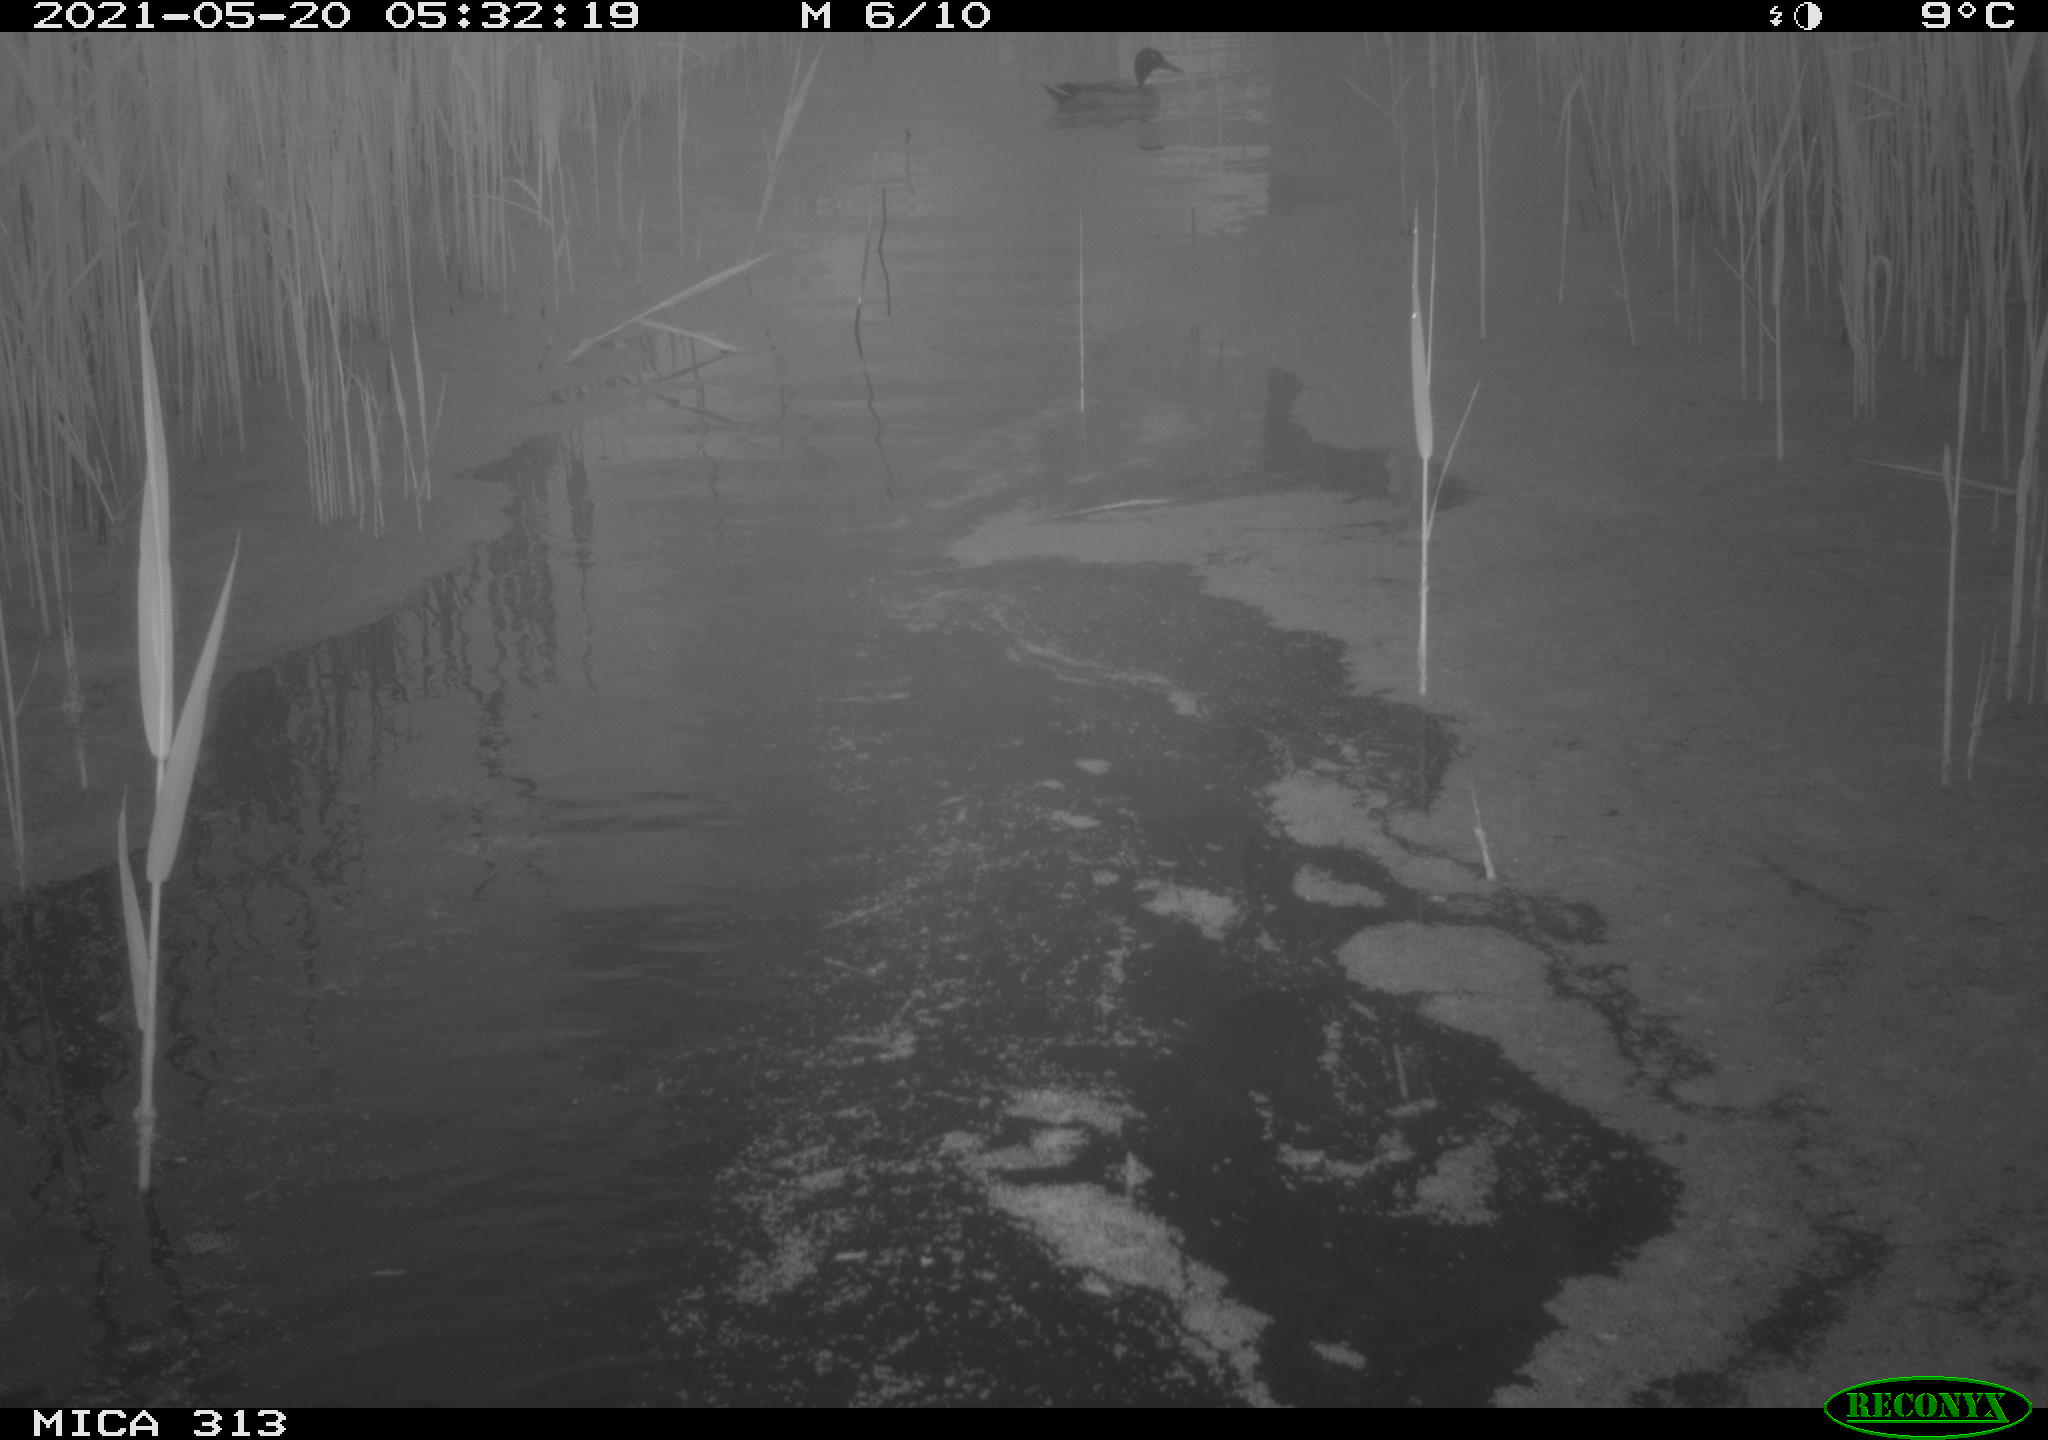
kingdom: Animalia
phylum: Chordata
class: Aves
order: Anseriformes
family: Anatidae
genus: Anas
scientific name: Anas platyrhynchos
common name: Mallard
